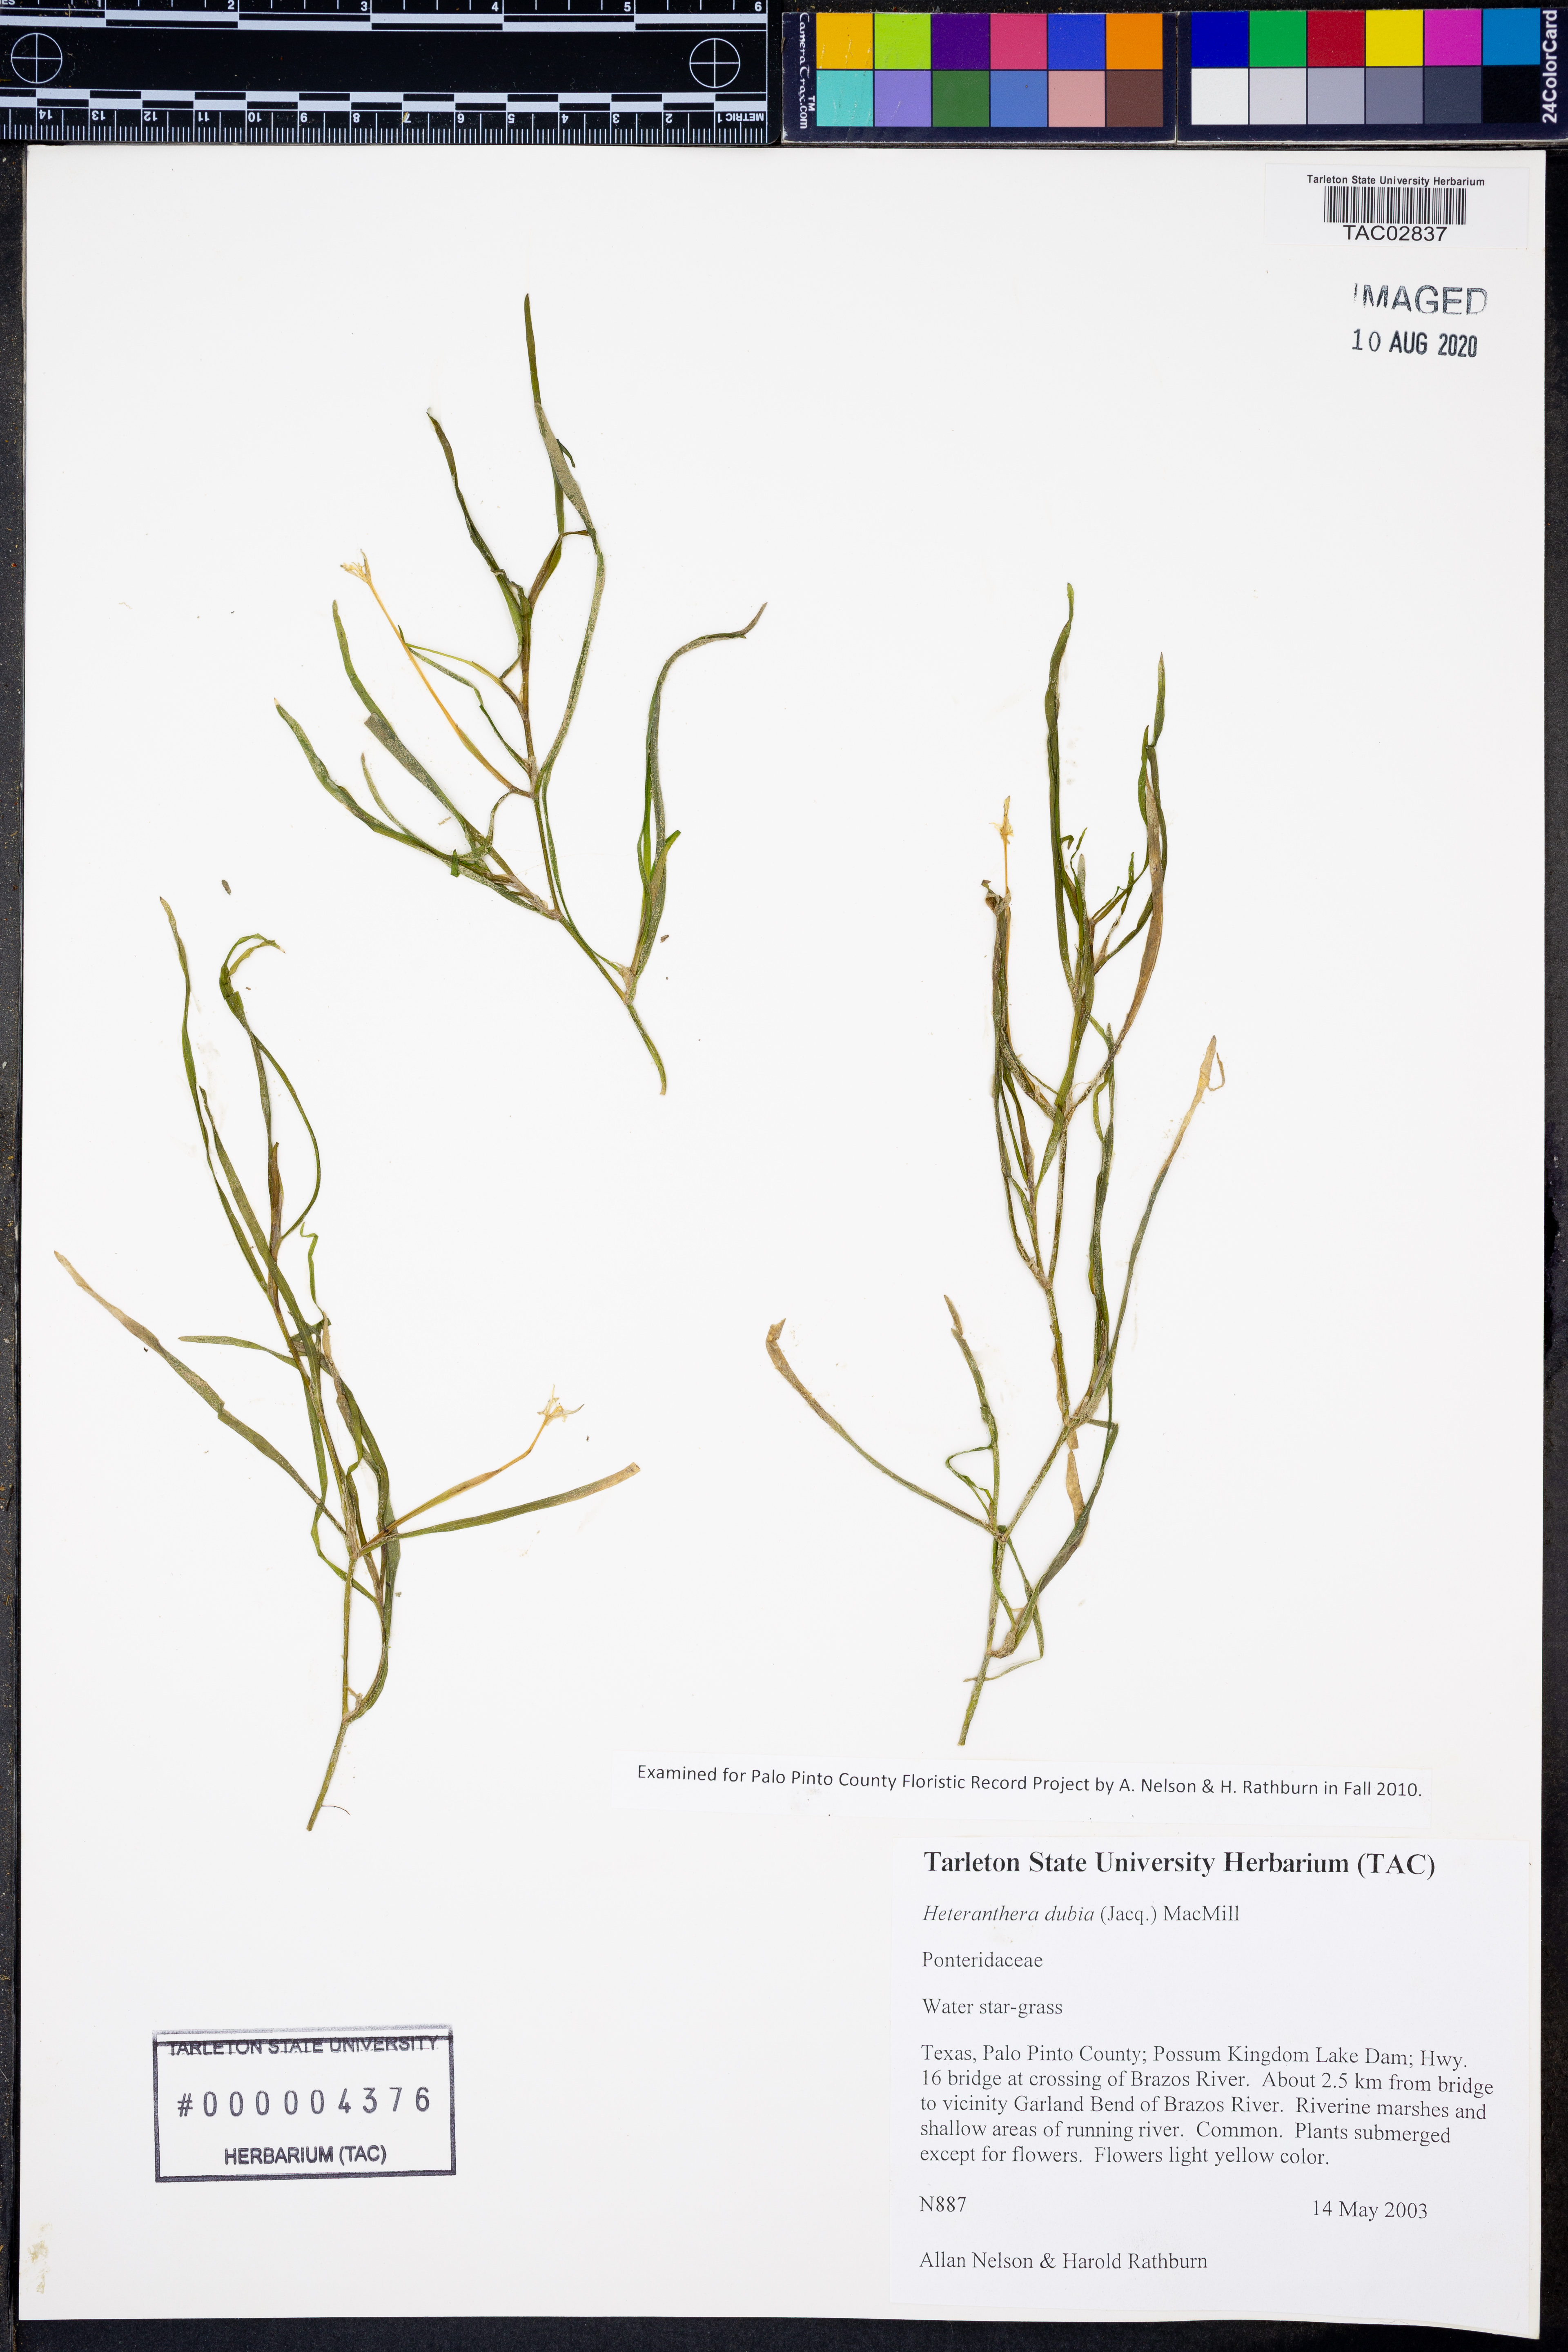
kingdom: Plantae
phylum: Tracheophyta
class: Liliopsida
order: Commelinales
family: Pontederiaceae
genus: Heteranthera
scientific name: Heteranthera dubia
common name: Grass-leaved mud plantain
